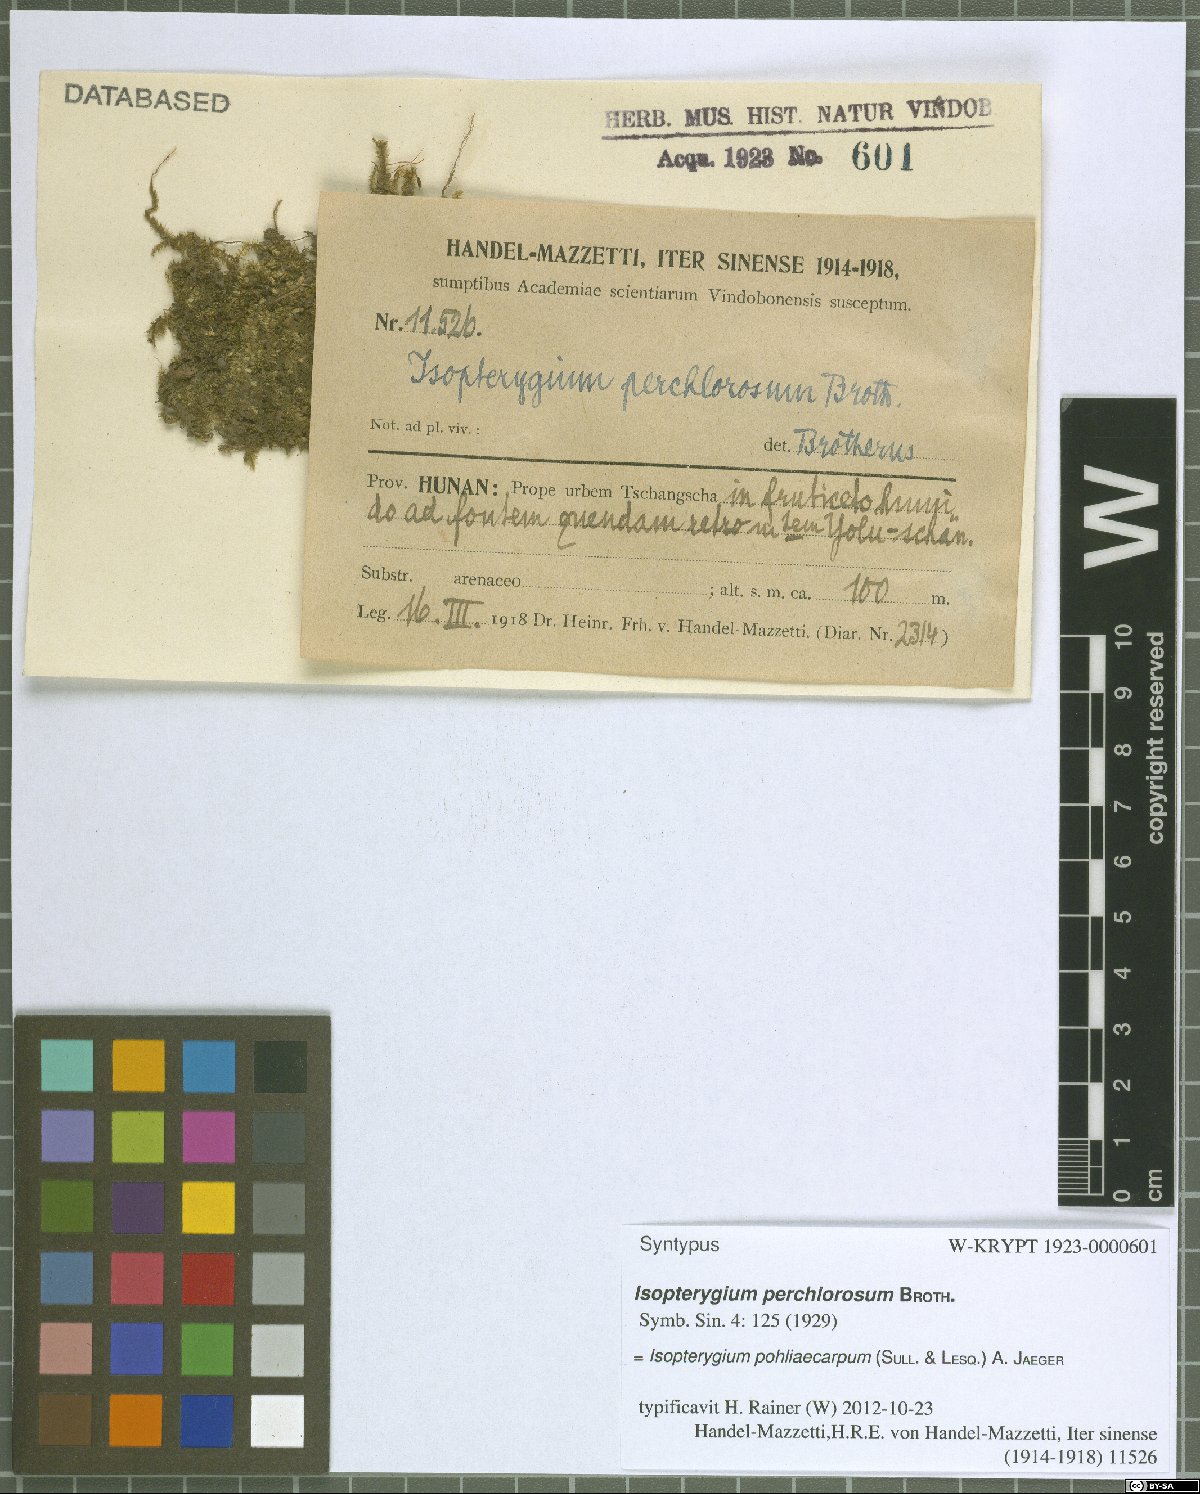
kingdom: Plantae
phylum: Bryophyta
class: Bryopsida
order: Hypnales
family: Plagiotheciaceae
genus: Pseudotaxiphyllum
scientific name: Pseudotaxiphyllum pohliicarpum
